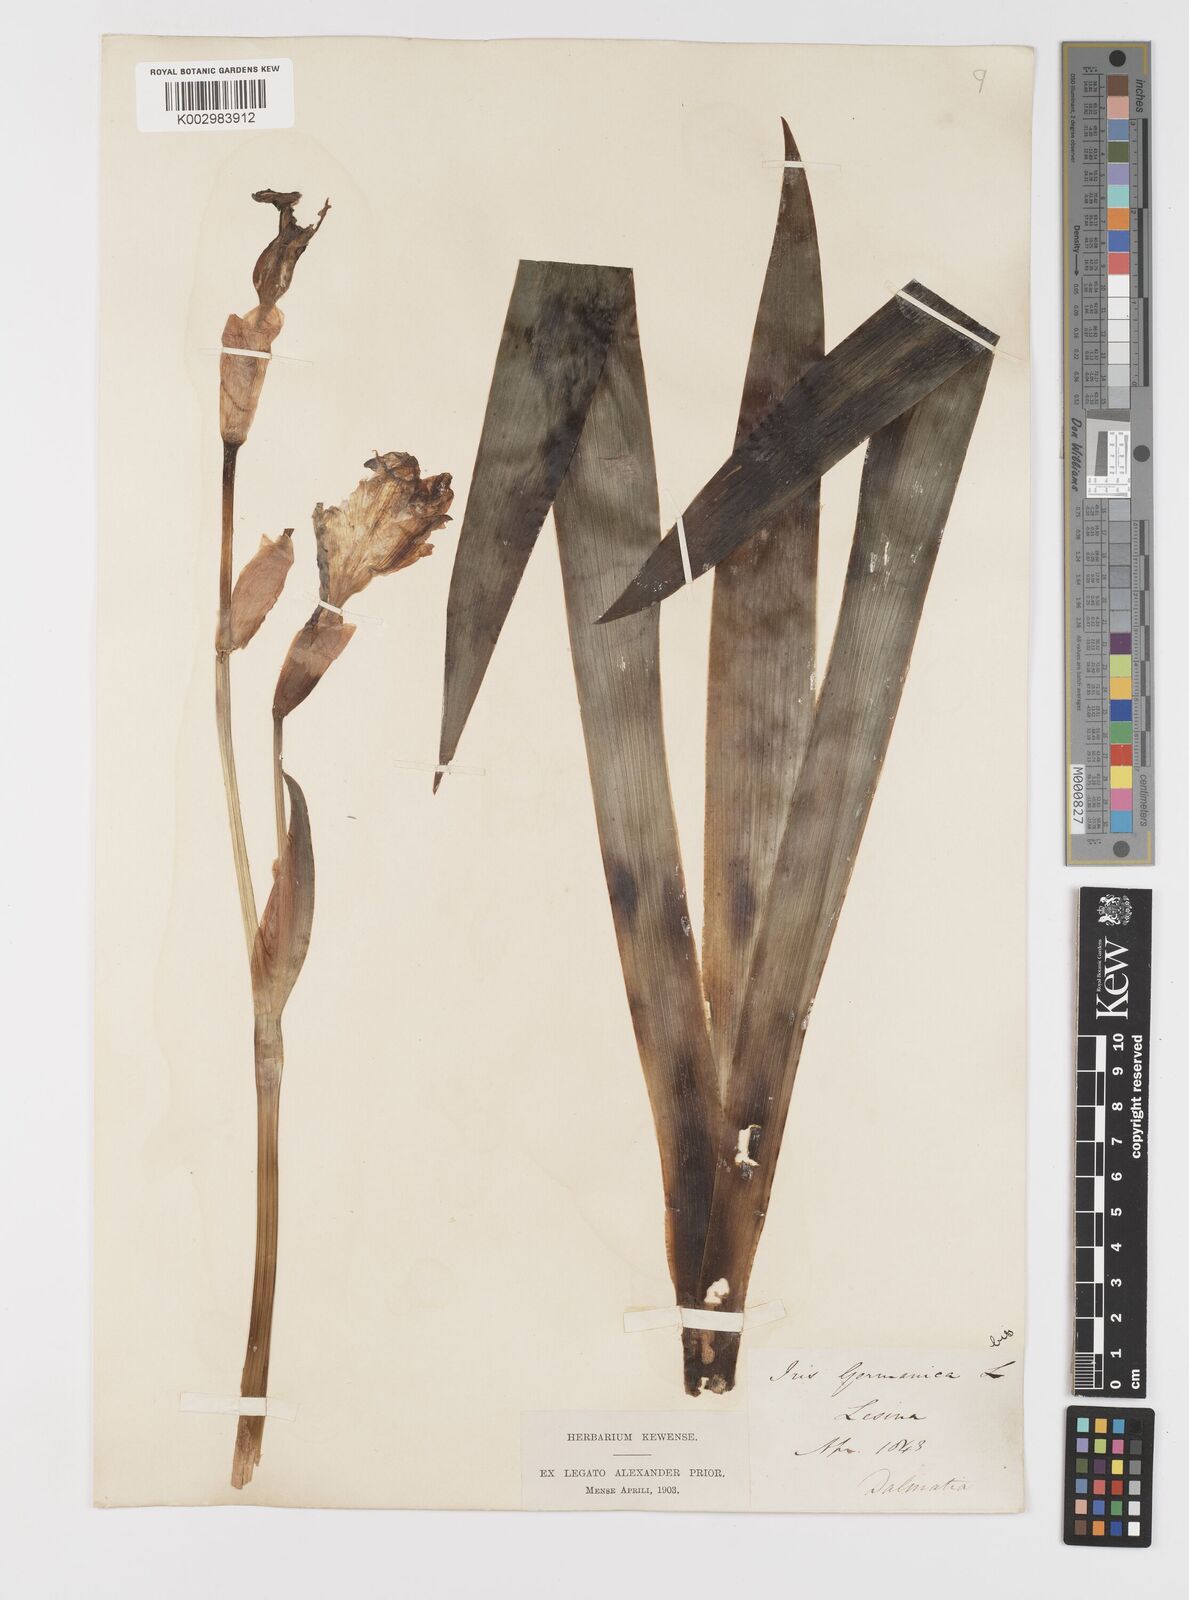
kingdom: Plantae
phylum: Tracheophyta
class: Liliopsida
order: Asparagales
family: Iridaceae
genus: Iris
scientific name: Iris germanica
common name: German iris
